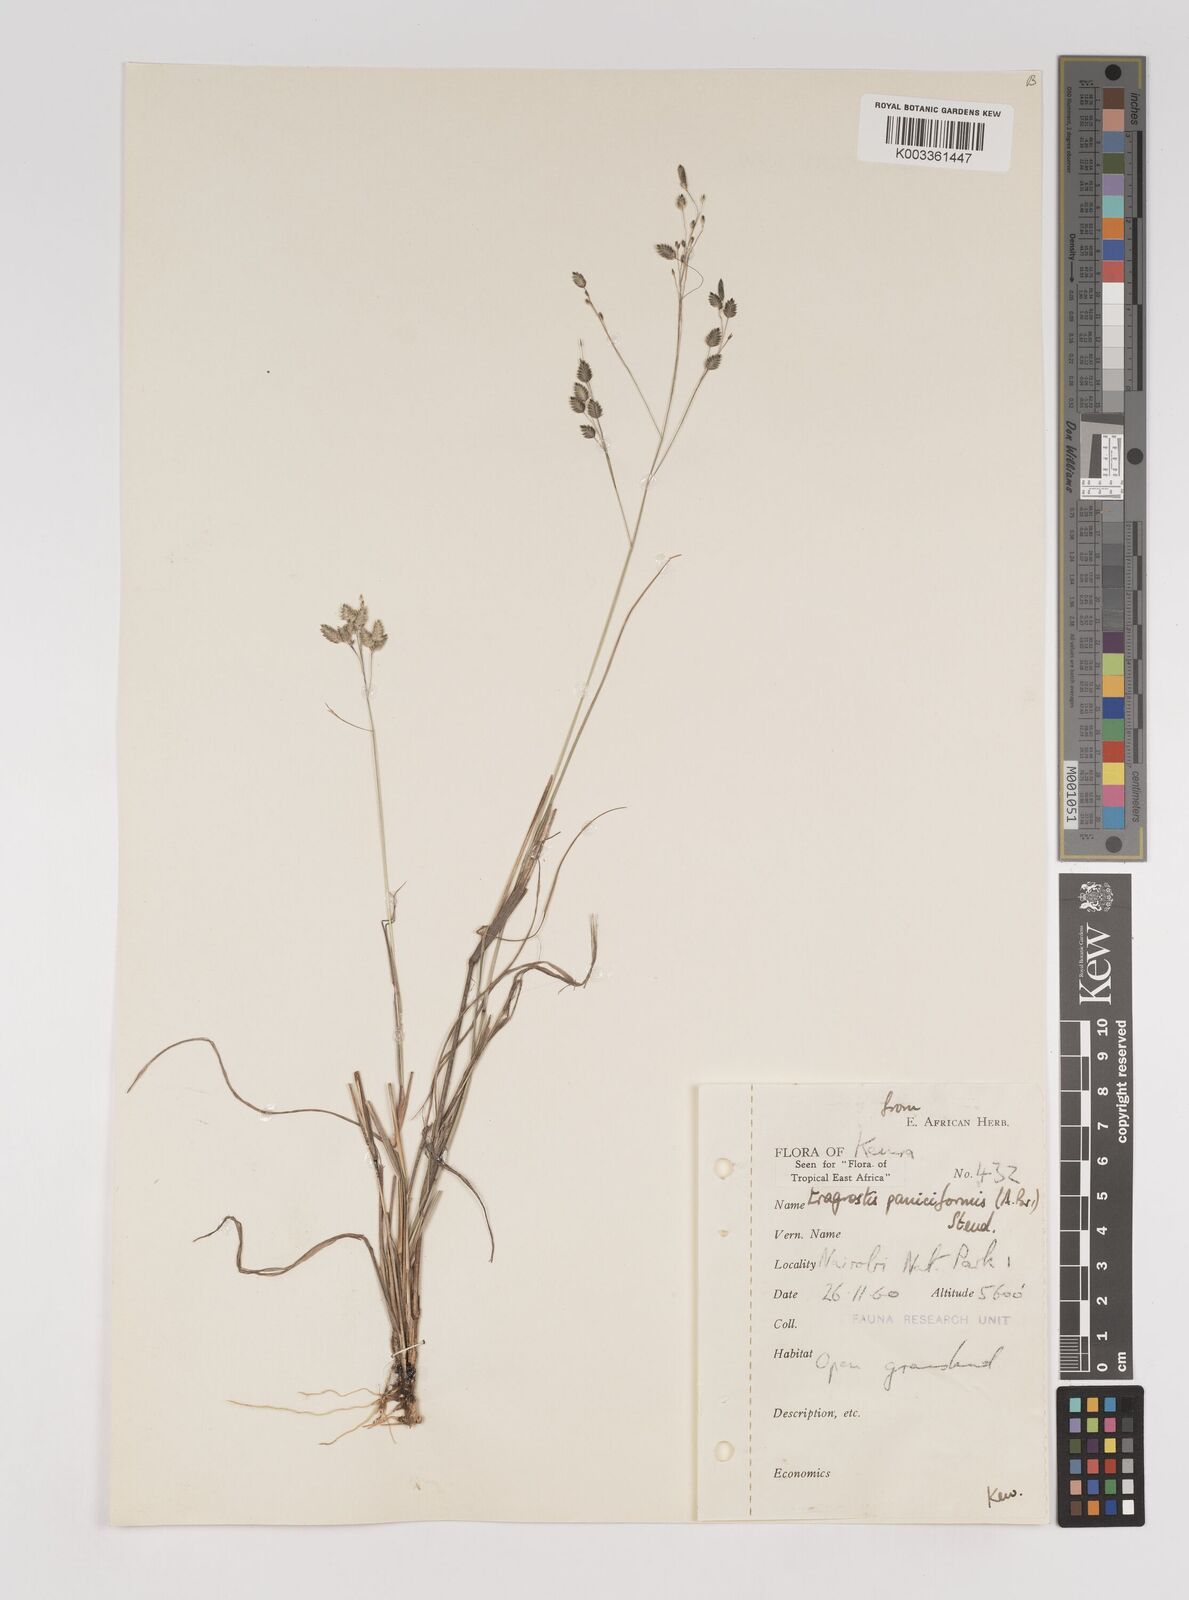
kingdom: Plantae
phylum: Tracheophyta
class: Liliopsida
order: Poales
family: Poaceae
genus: Eragrostis
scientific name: Eragrostis paniciformis
